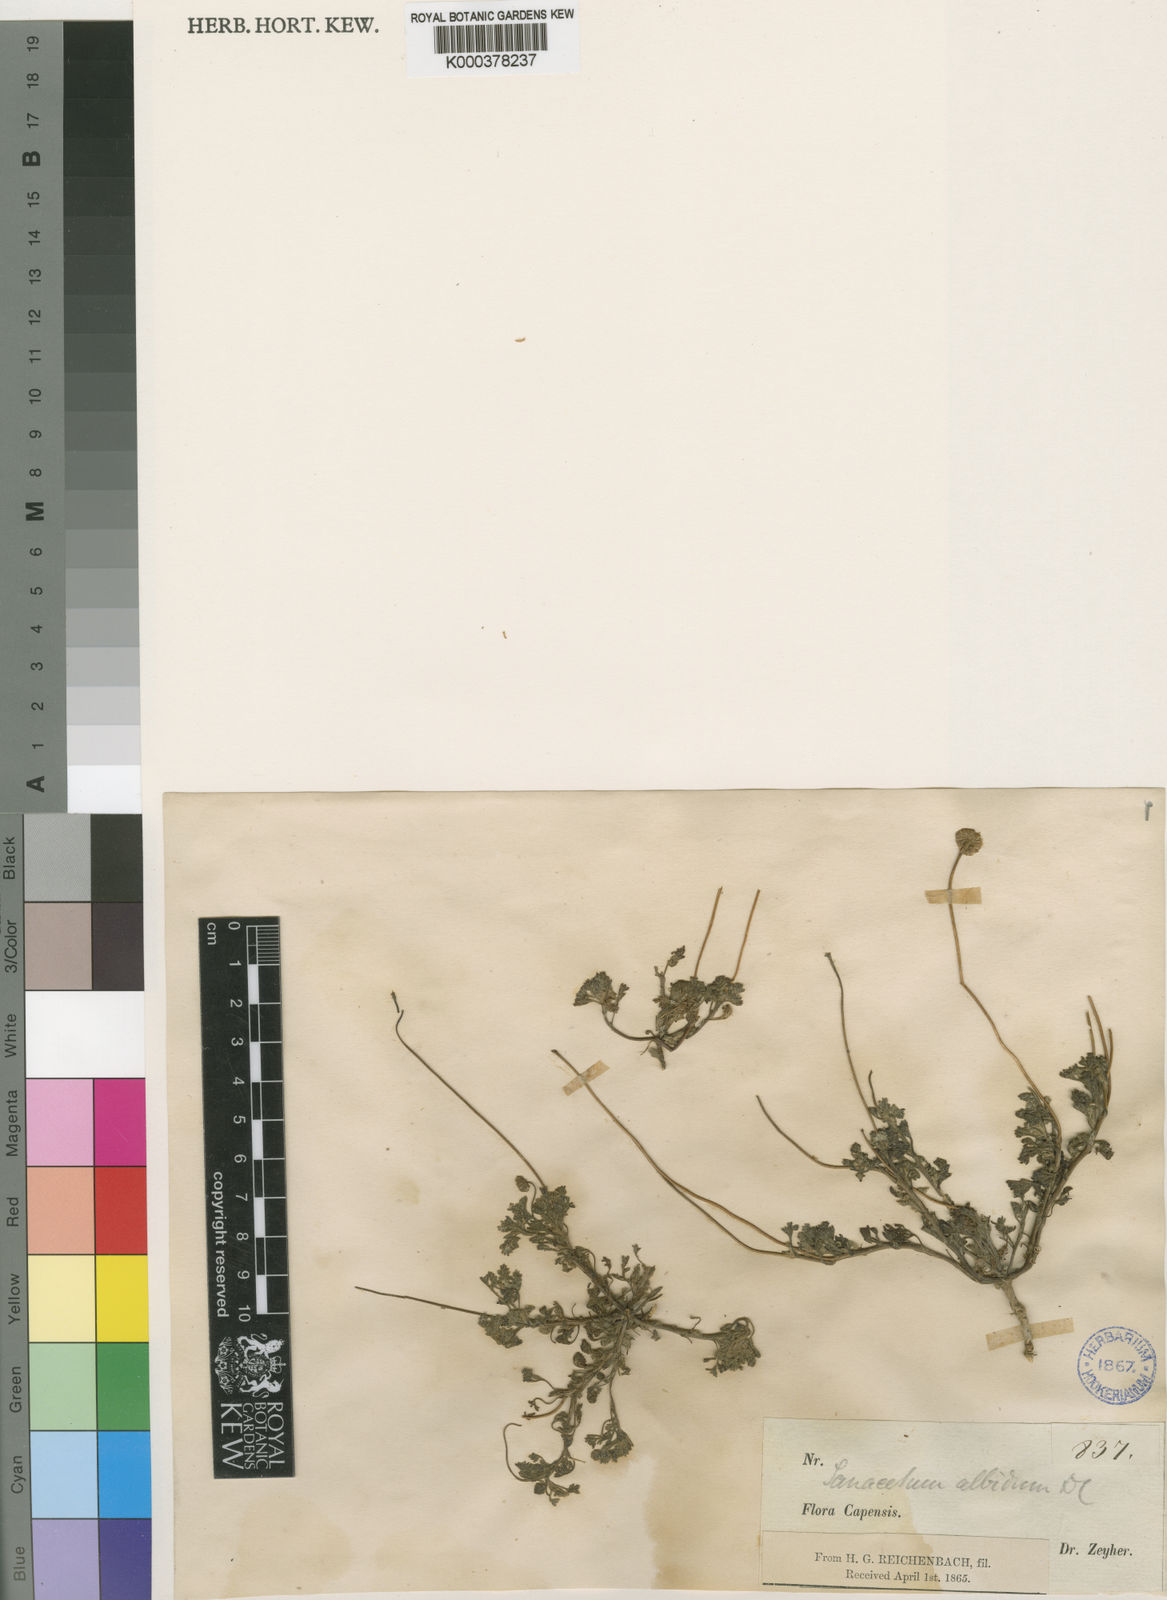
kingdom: Plantae
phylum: Tracheophyta
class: Magnoliopsida
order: Asterales
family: Asteraceae
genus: Foveolina
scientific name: Foveolina
